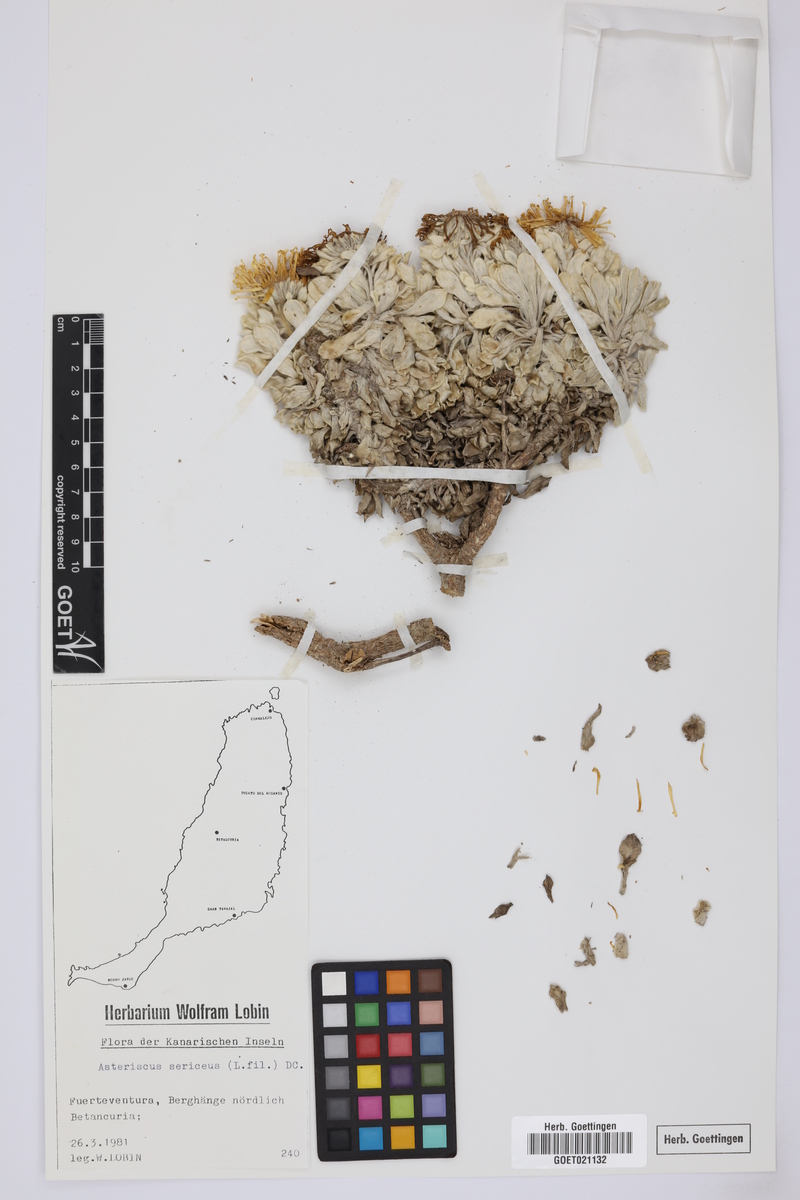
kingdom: Plantae
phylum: Tracheophyta
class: Magnoliopsida
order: Asterales
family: Asteraceae
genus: Asteriscus
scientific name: Asteriscus sericeus
